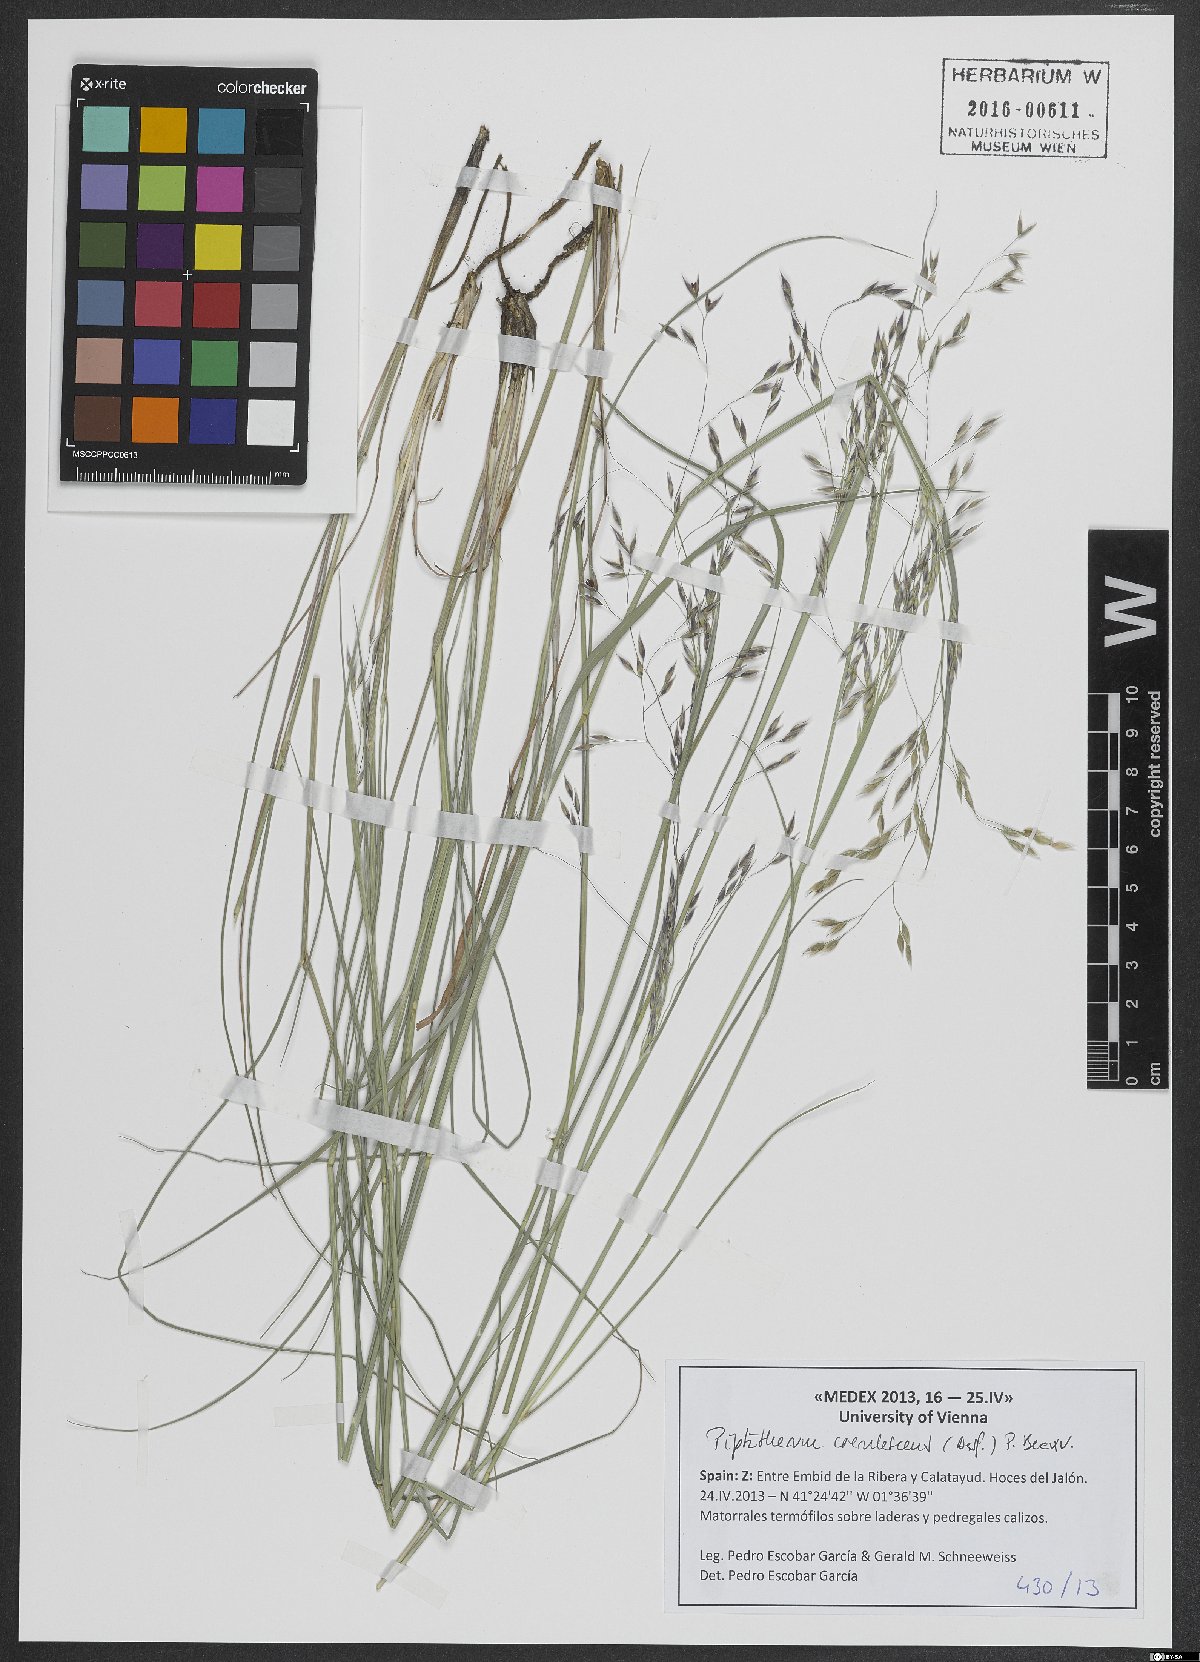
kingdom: Plantae
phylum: Tracheophyta
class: Liliopsida
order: Poales
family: Poaceae
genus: Piptatherum
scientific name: Piptatherum coerulescens
